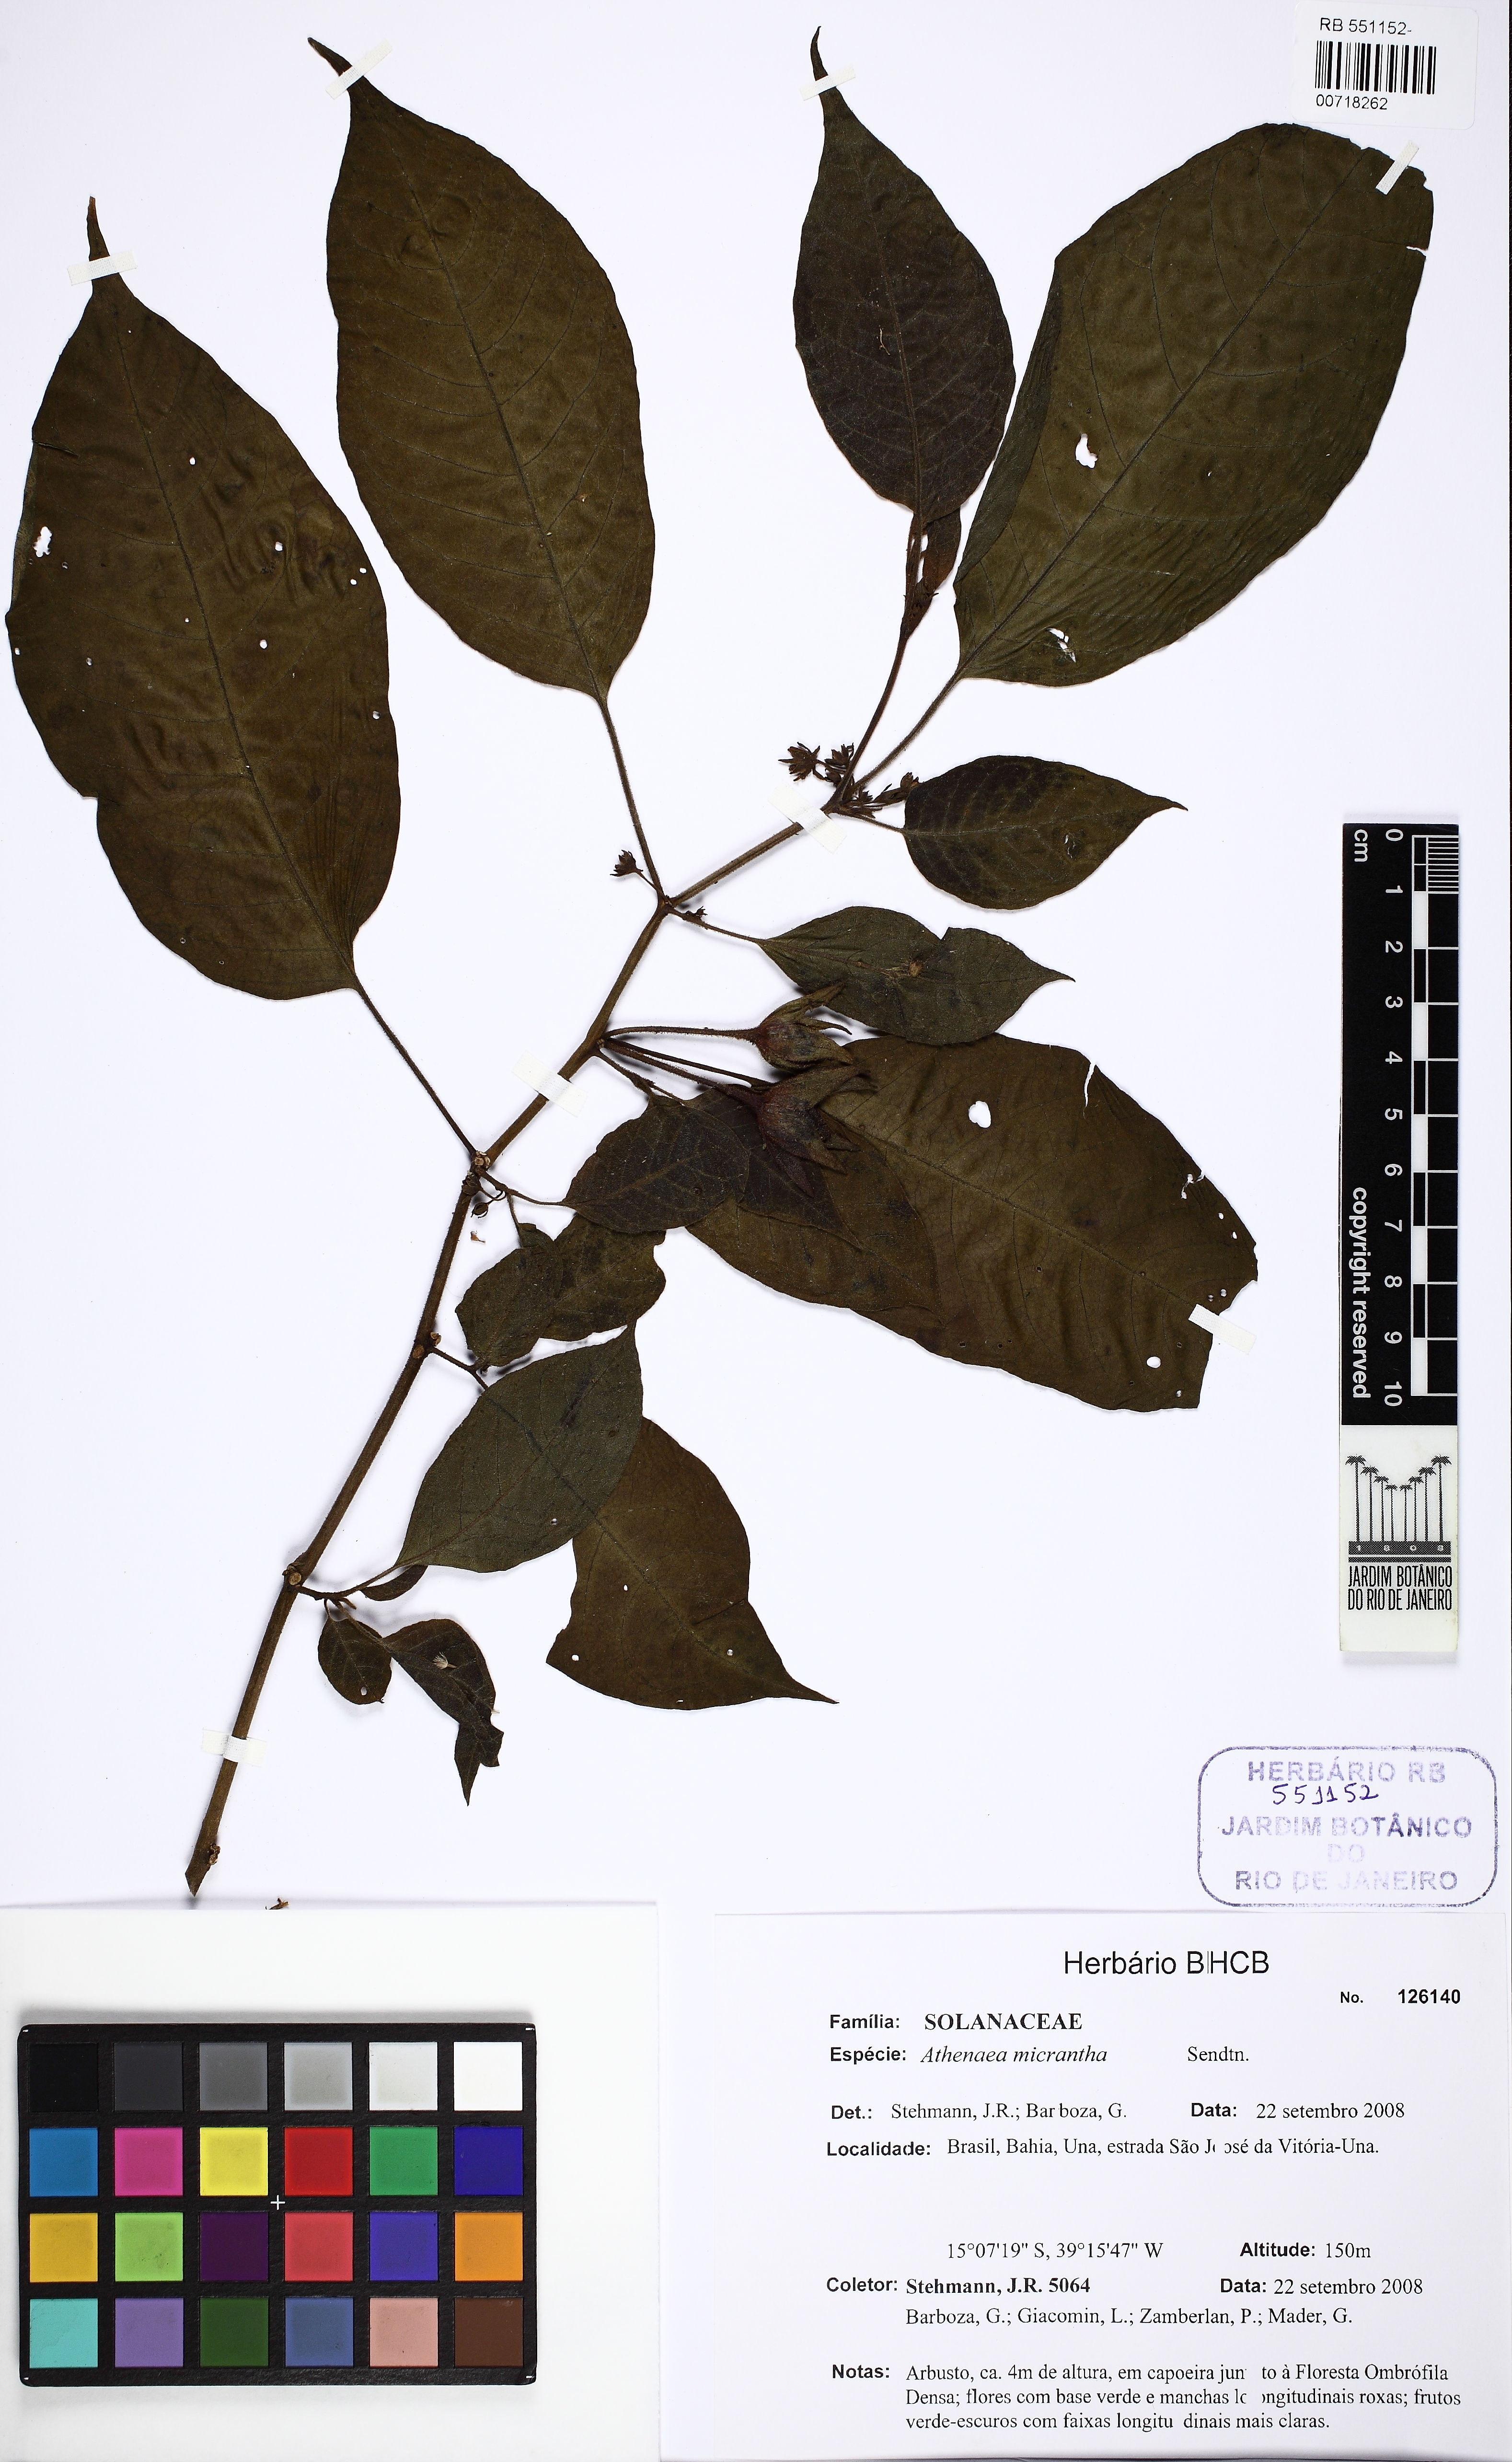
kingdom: Plantae
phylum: Tracheophyta
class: Magnoliopsida
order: Solanales
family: Solanaceae
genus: Athenaea
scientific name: Athenaea pogogena
